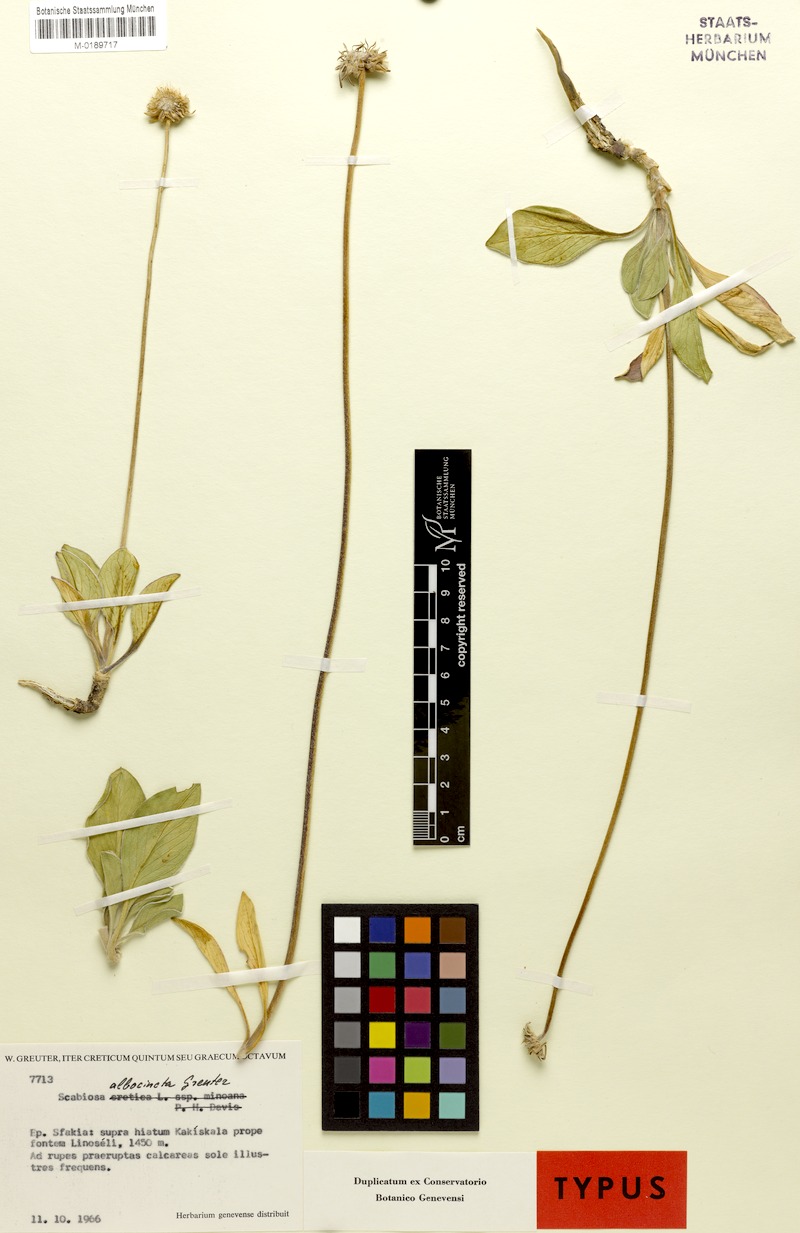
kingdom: Plantae
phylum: Tracheophyta
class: Magnoliopsida
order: Dipsacales
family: Caprifoliaceae
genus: Lomelosia
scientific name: Lomelosia albocincta
